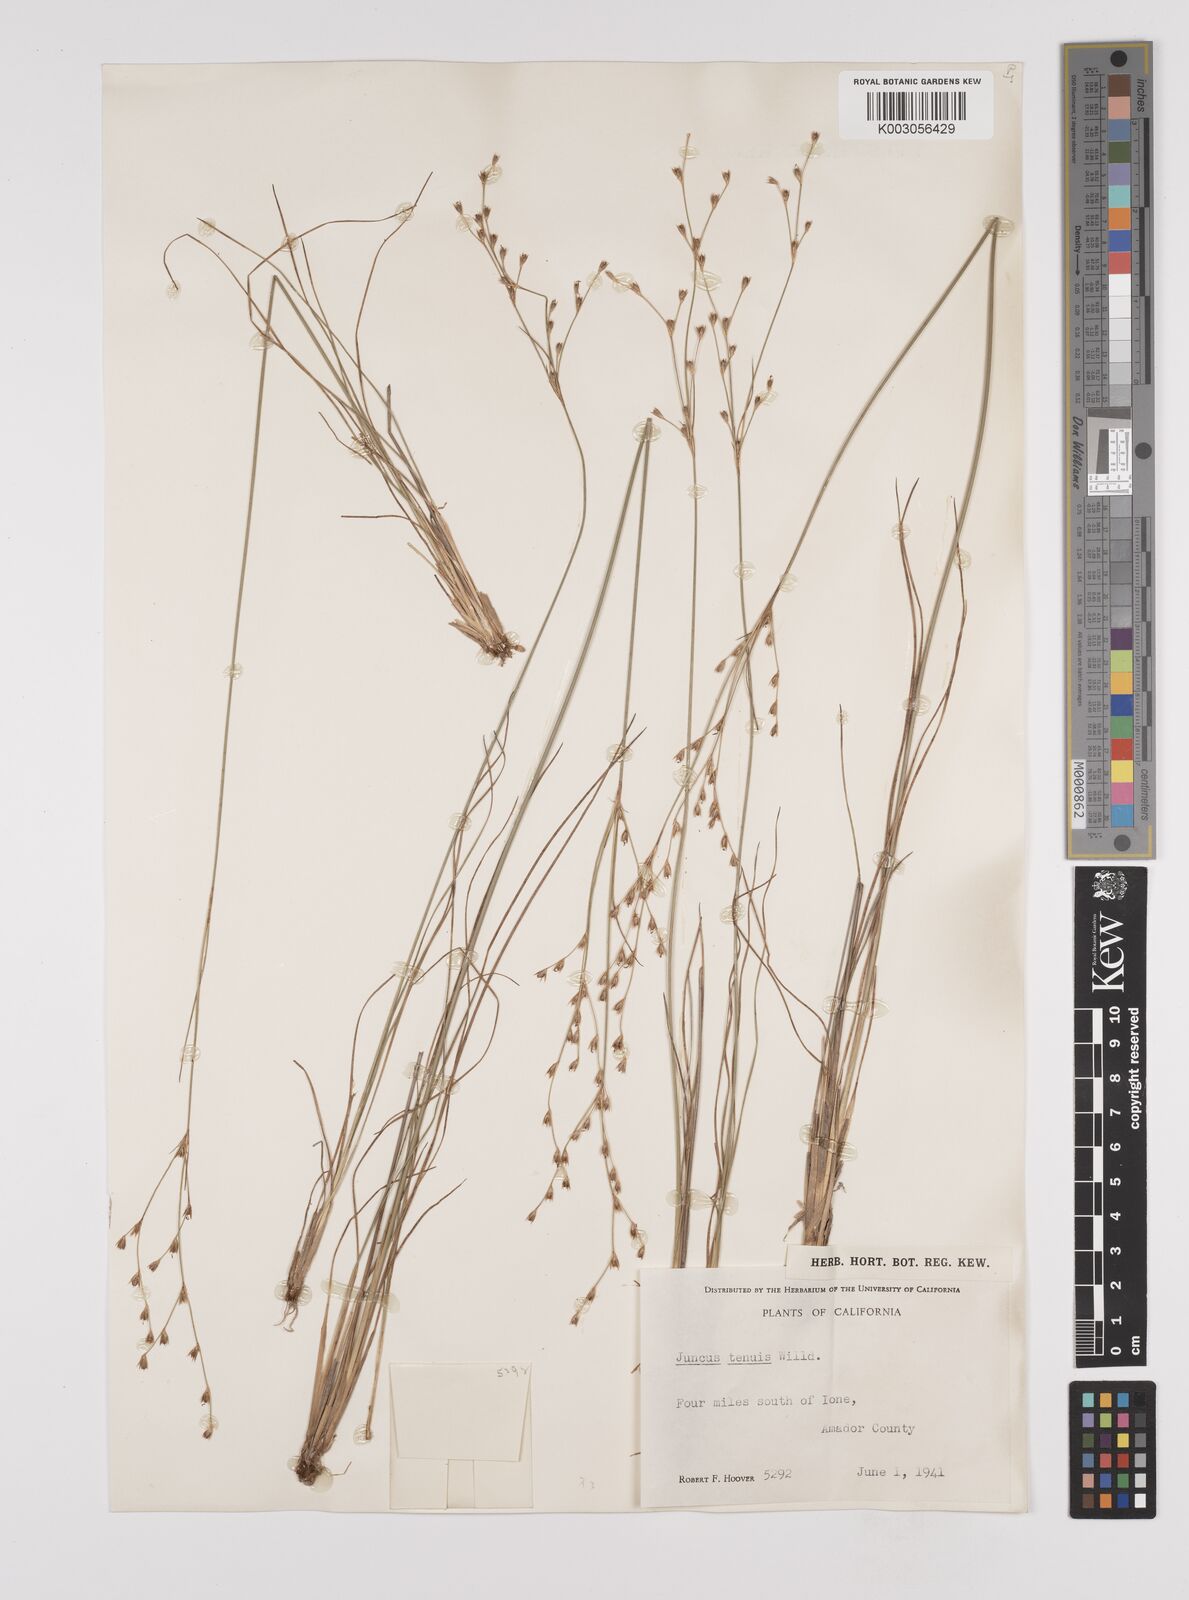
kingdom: Plantae
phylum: Tracheophyta
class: Liliopsida
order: Poales
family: Juncaceae
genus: Juncus
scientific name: Juncus anthelatus
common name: Giant path rush
